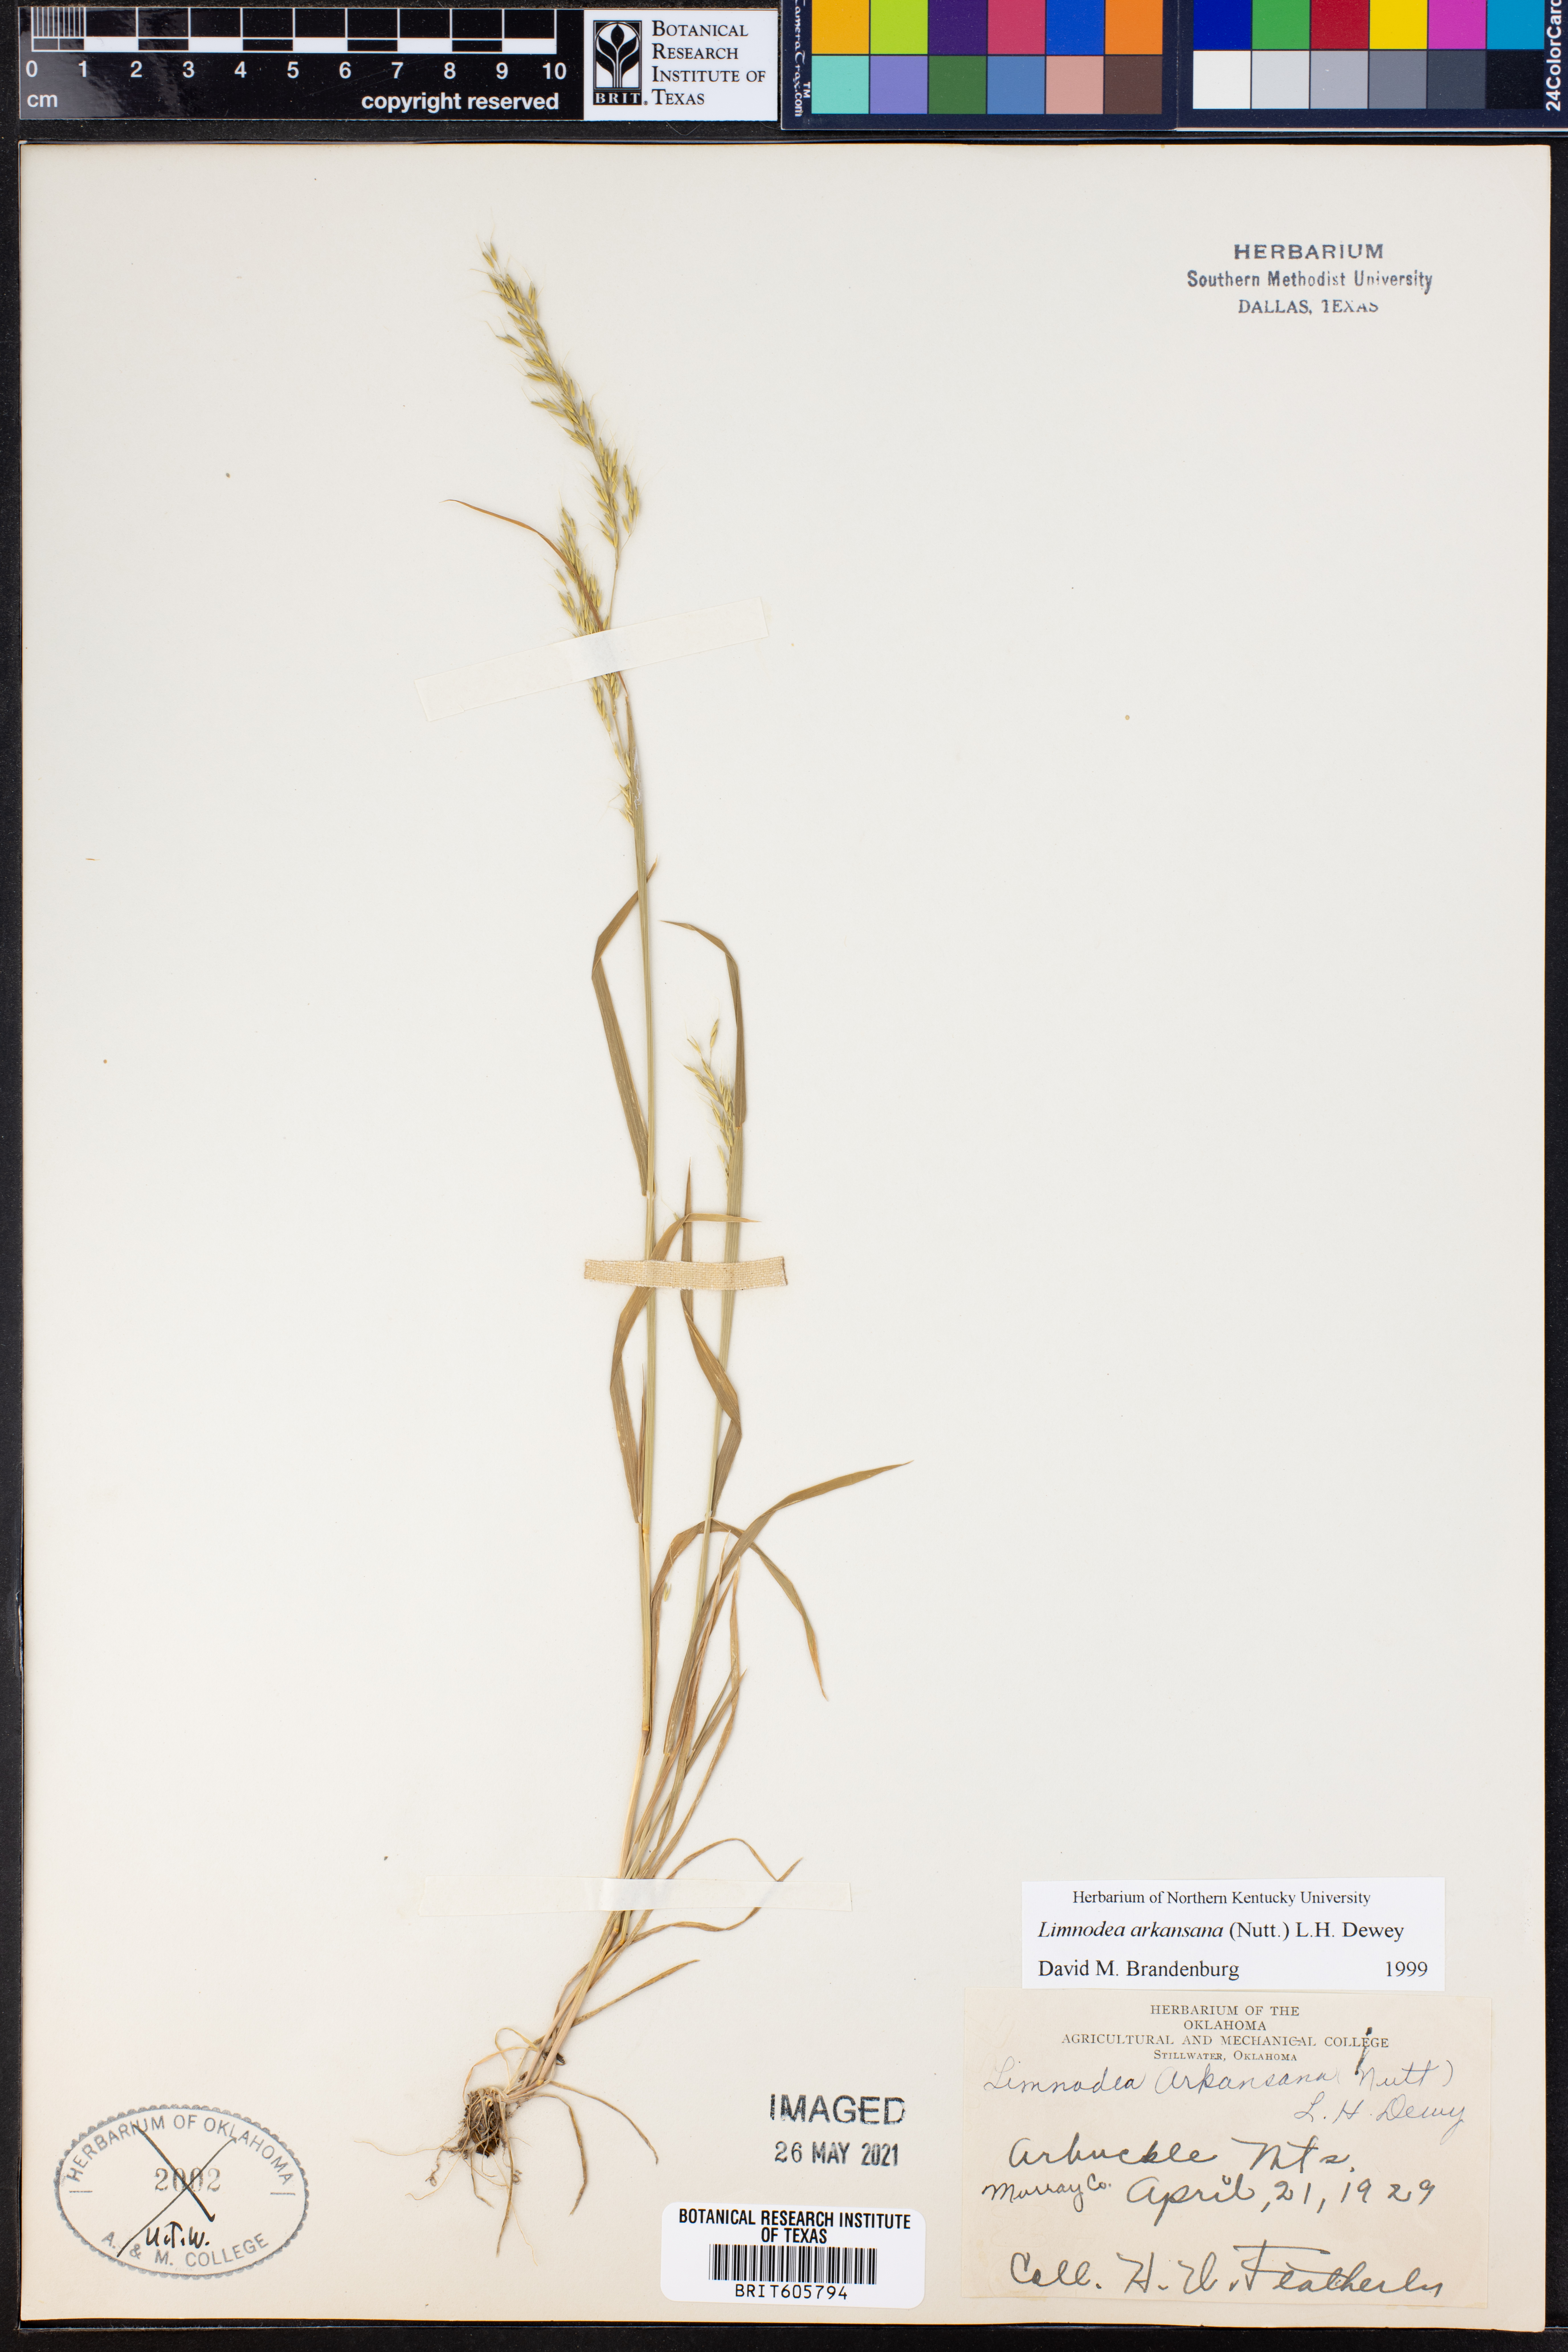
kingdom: Plantae
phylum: Tracheophyta
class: Liliopsida
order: Poales
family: Poaceae
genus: Limnodea
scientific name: Limnodea arkansana
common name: Ozark-grass
